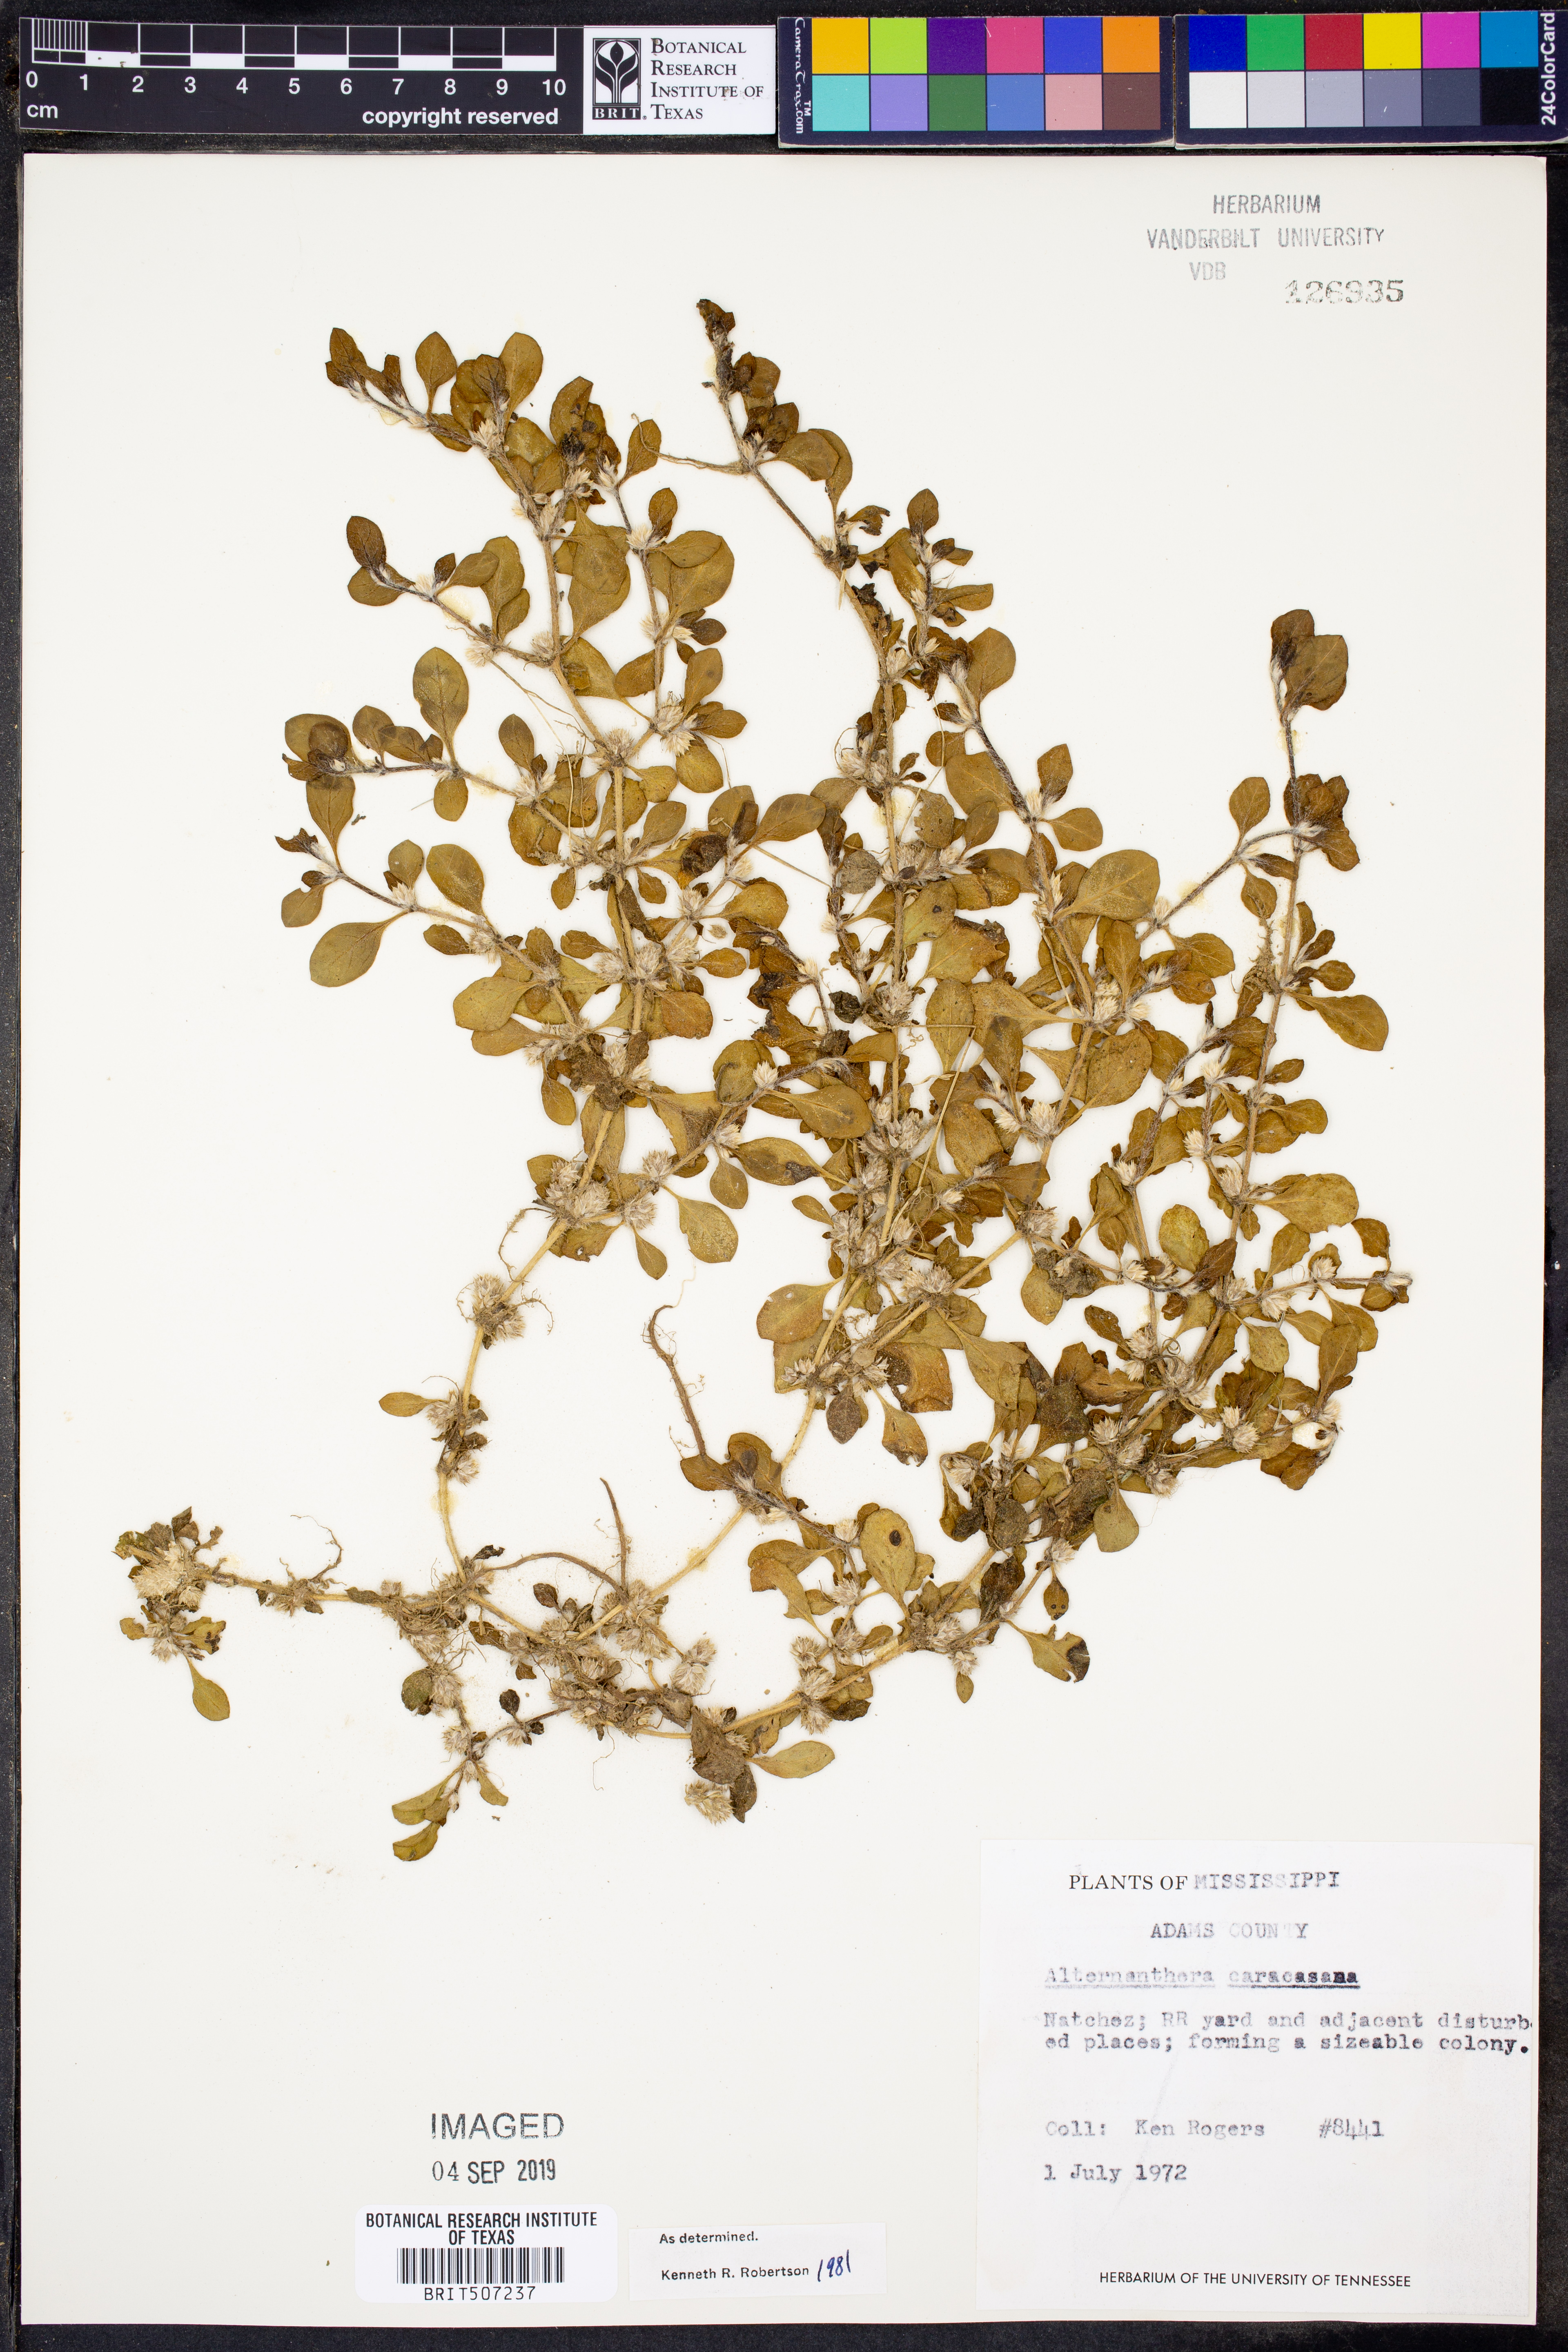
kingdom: Plantae
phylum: Tracheophyta
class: Magnoliopsida
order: Caryophyllales
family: Amaranthaceae
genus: Alternanthera
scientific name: Alternanthera caracasana
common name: Washerwoman
